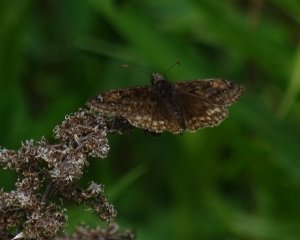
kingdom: Animalia
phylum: Arthropoda
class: Insecta
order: Lepidoptera
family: Hesperiidae
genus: Gesta
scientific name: Gesta
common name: Juvenal's Duskywing
